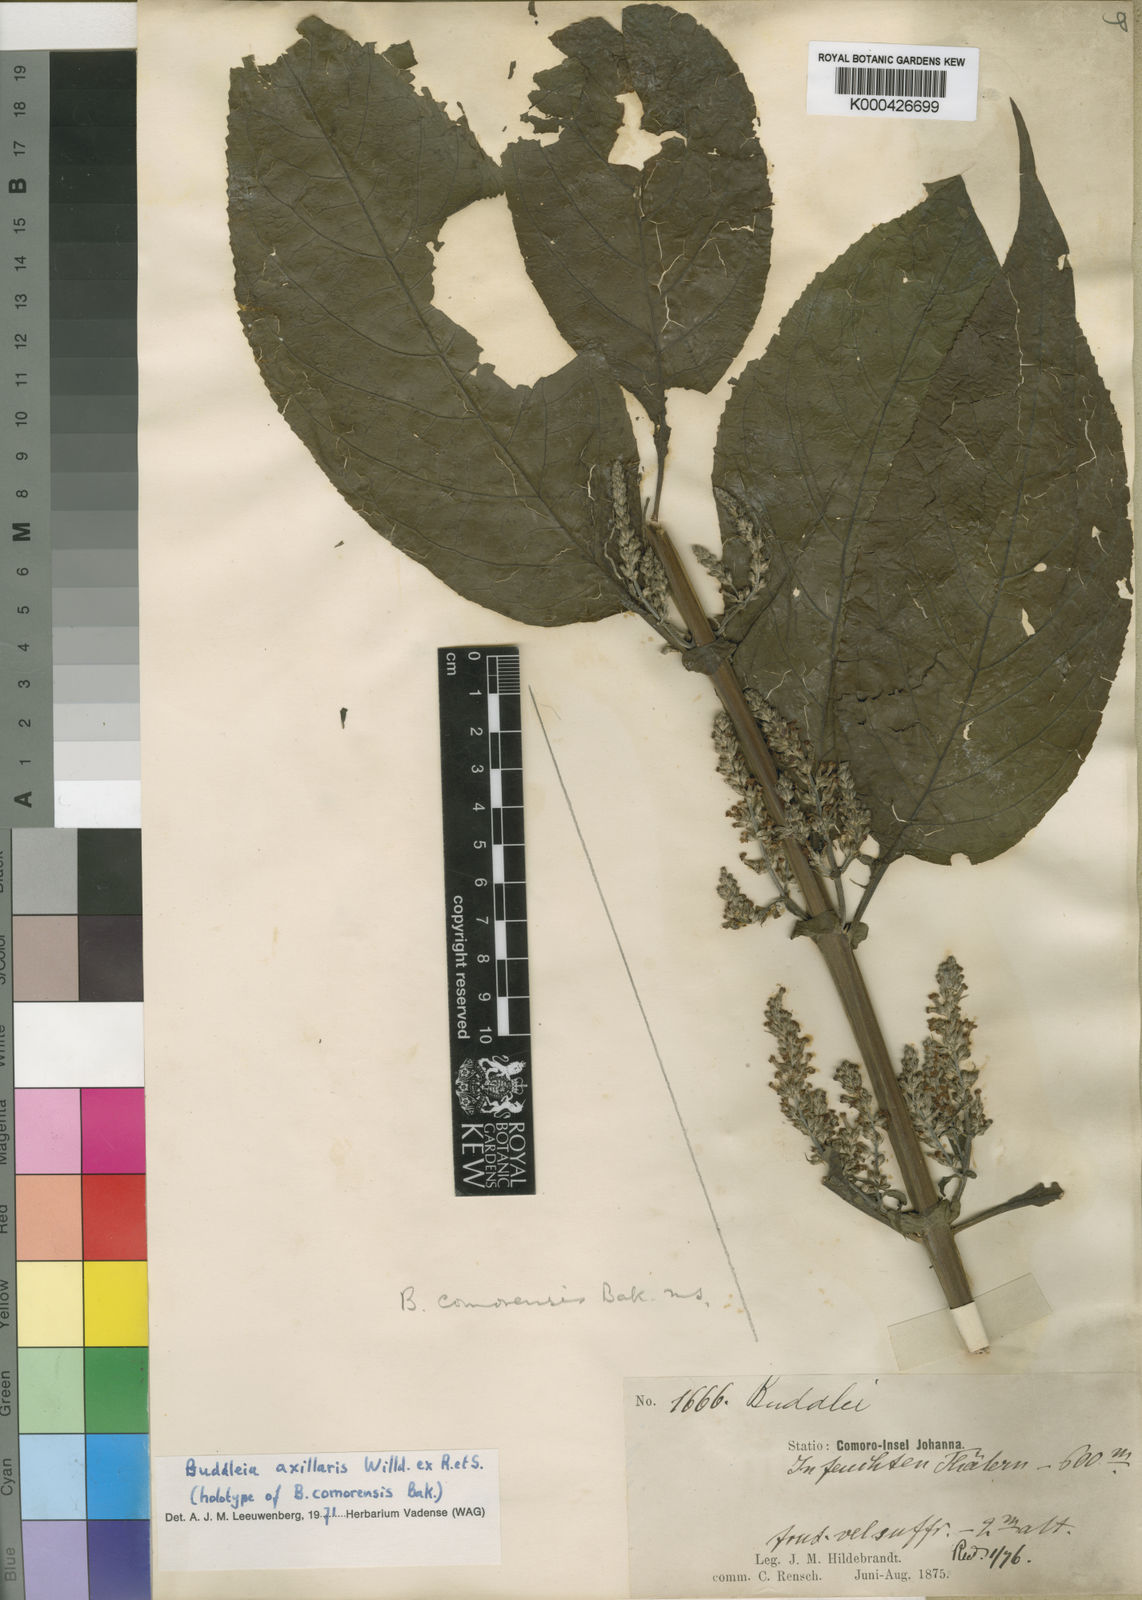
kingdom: Plantae
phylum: Tracheophyta
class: Magnoliopsida
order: Lamiales
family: Scrophulariaceae
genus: Buddleja
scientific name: Buddleja axillaris
